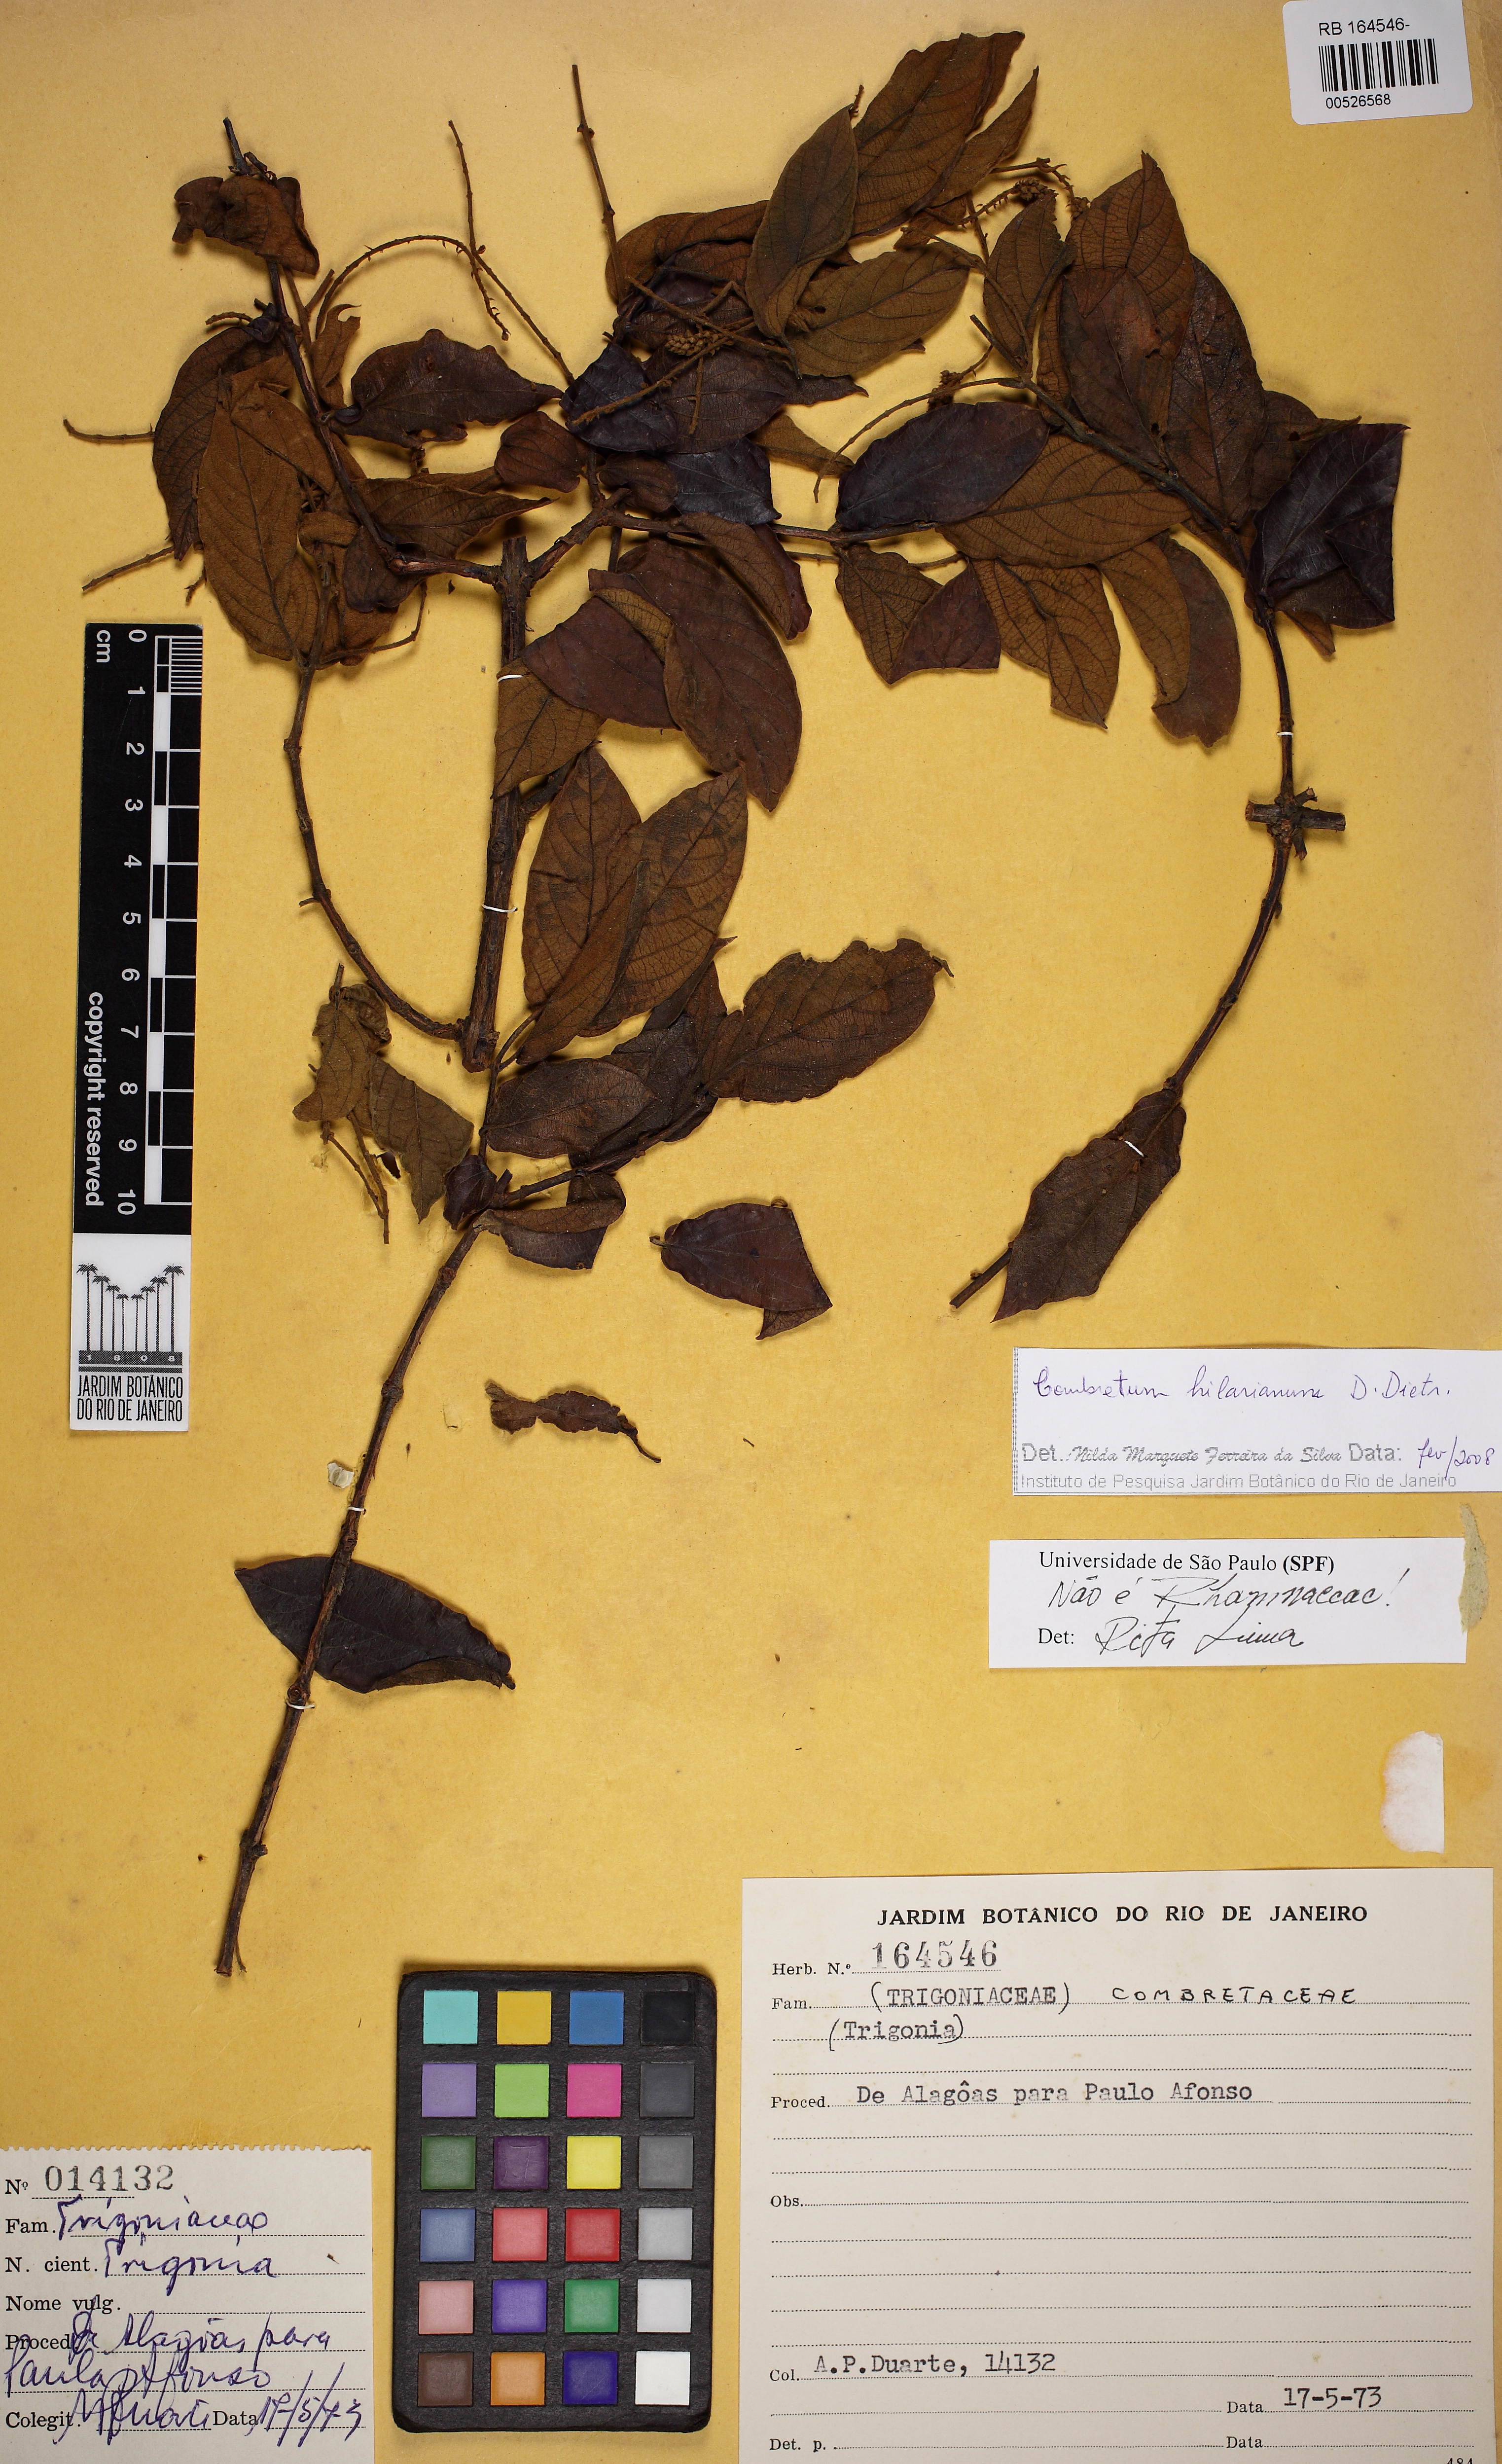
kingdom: Plantae
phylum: Tracheophyta
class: Magnoliopsida
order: Myrtales
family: Combretaceae
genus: Combretum
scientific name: Combretum hilarianum
